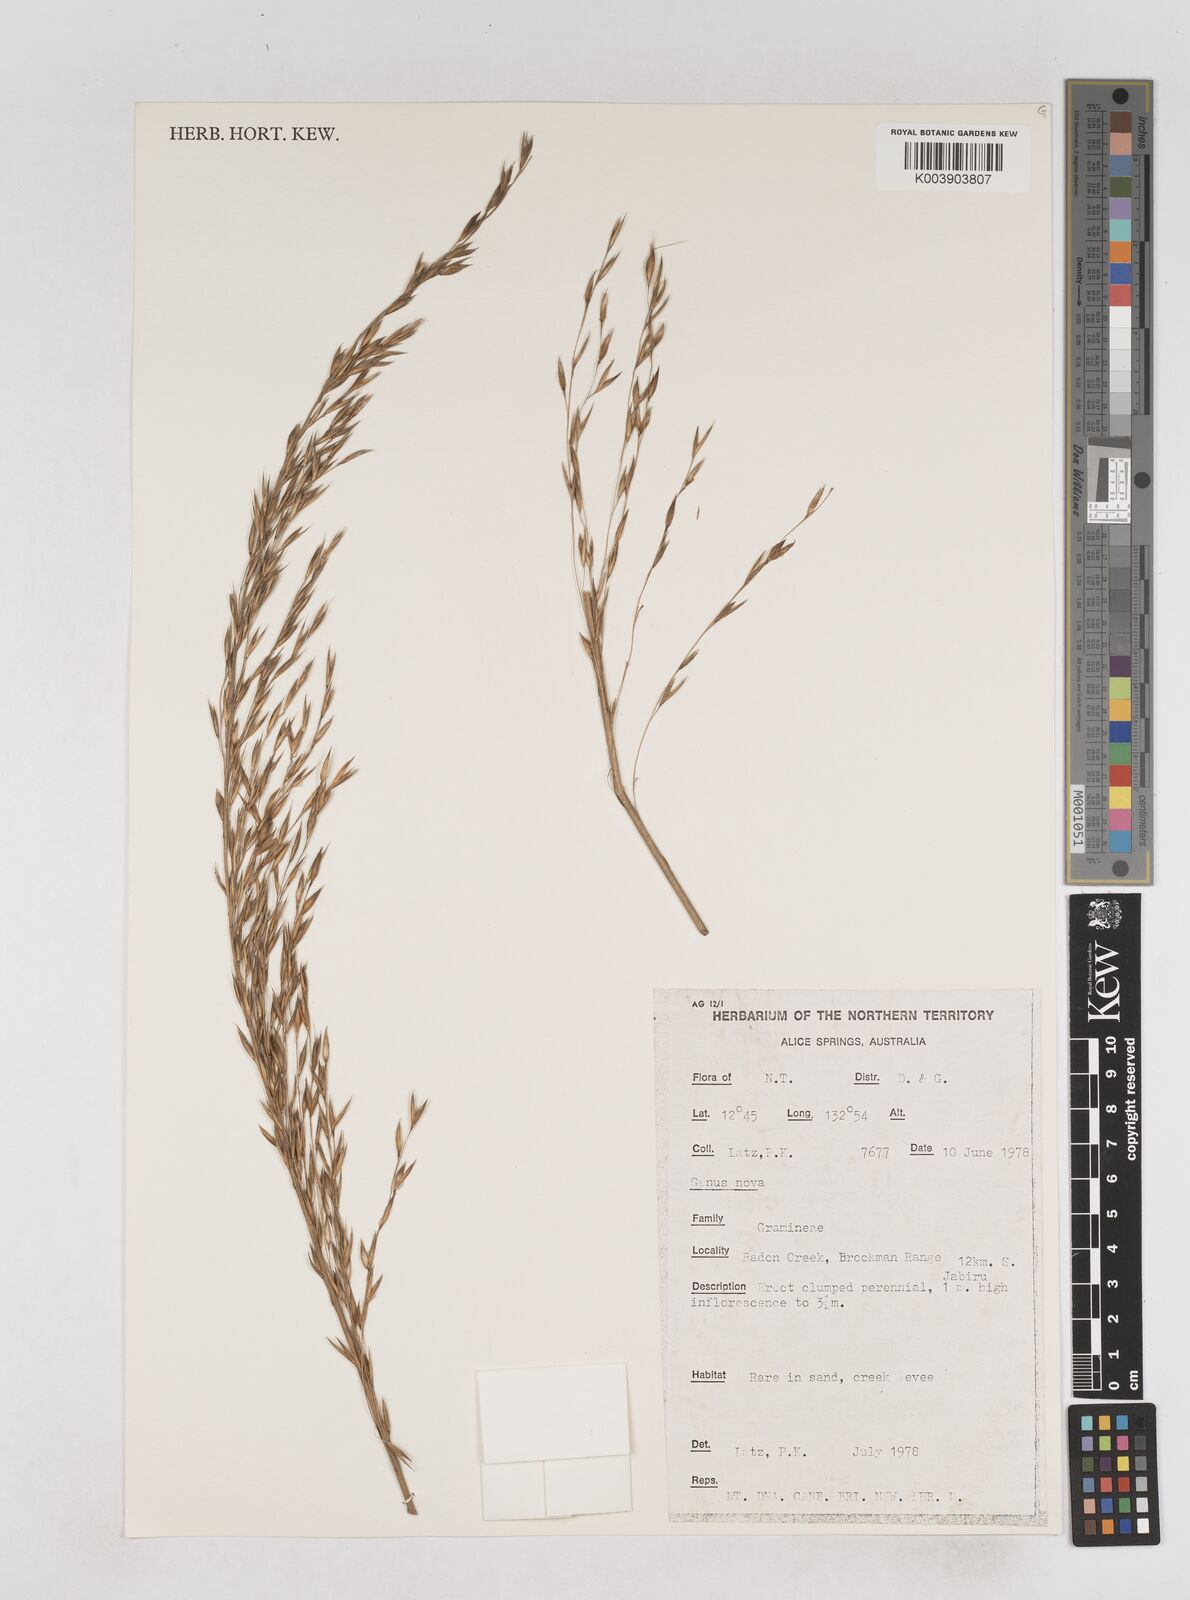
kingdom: Plantae
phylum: Tracheophyta
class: Liliopsida
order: Poales
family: Poaceae
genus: Triodia
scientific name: Triodia lanosa
